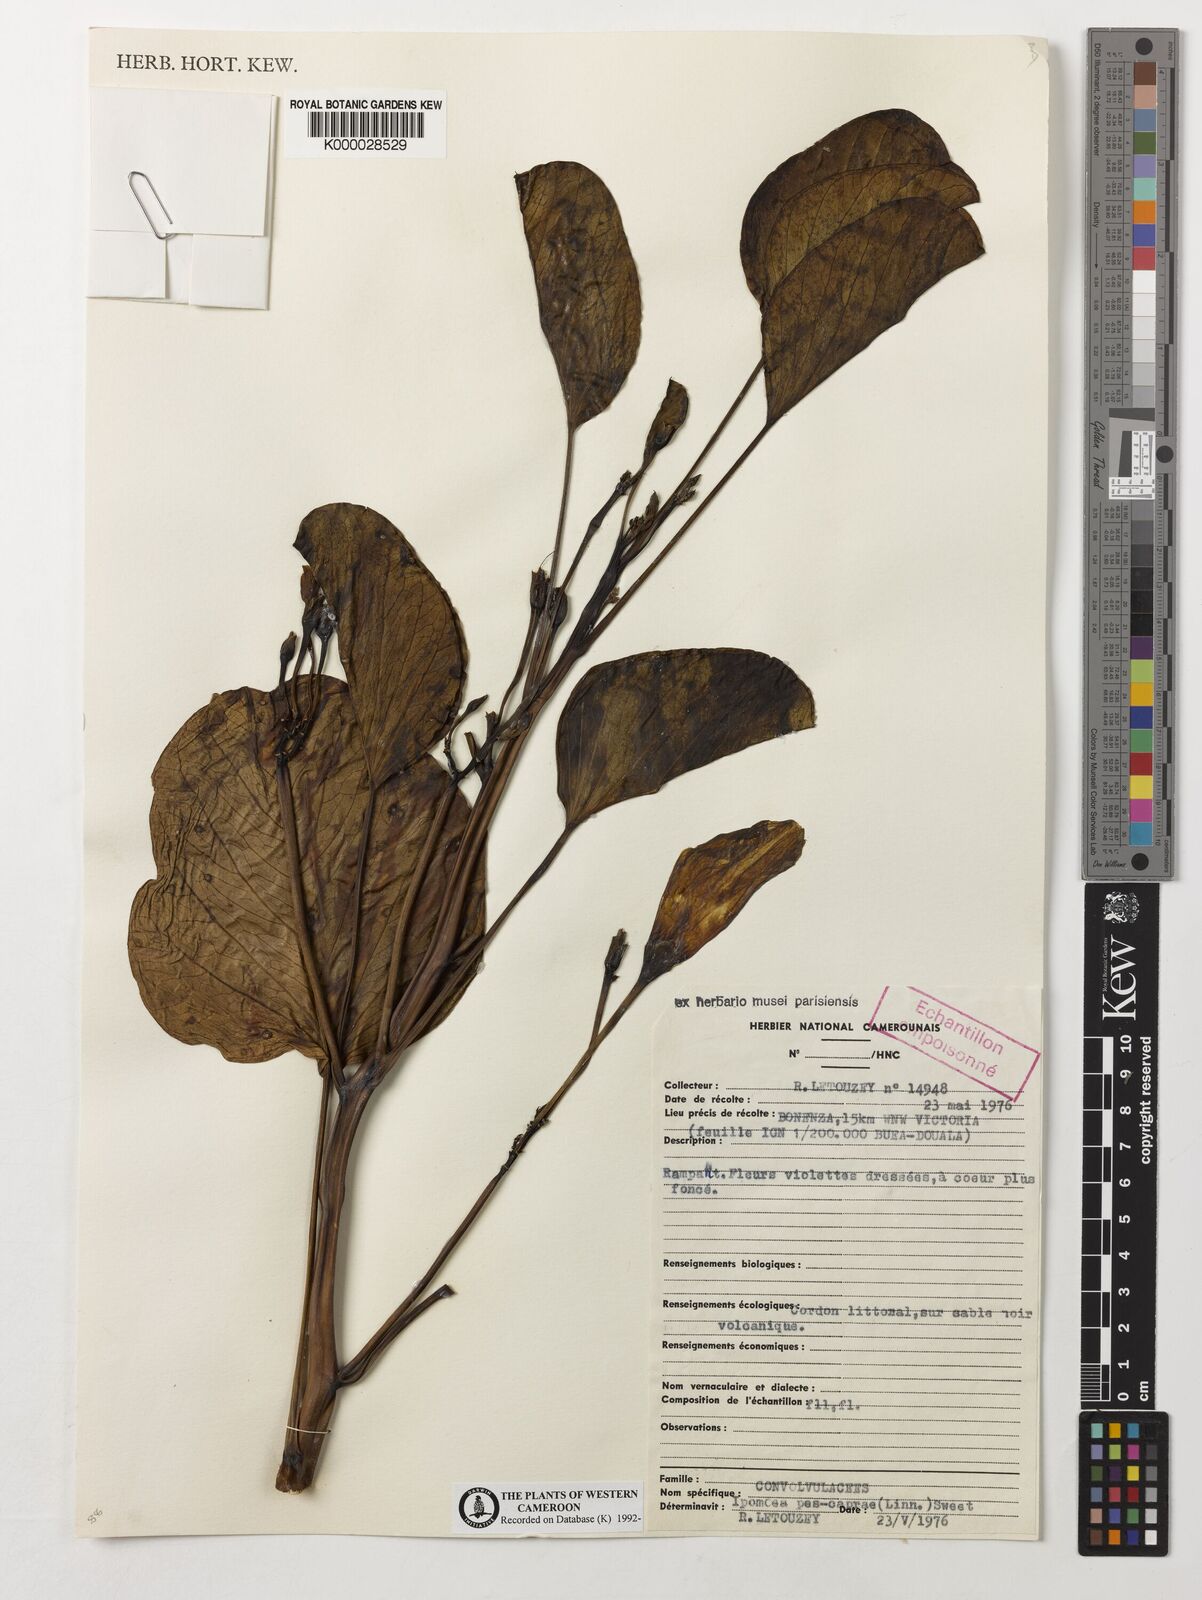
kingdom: Plantae
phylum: Tracheophyta
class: Magnoliopsida
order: Solanales
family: Convolvulaceae
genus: Ipomoea
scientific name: Ipomoea
